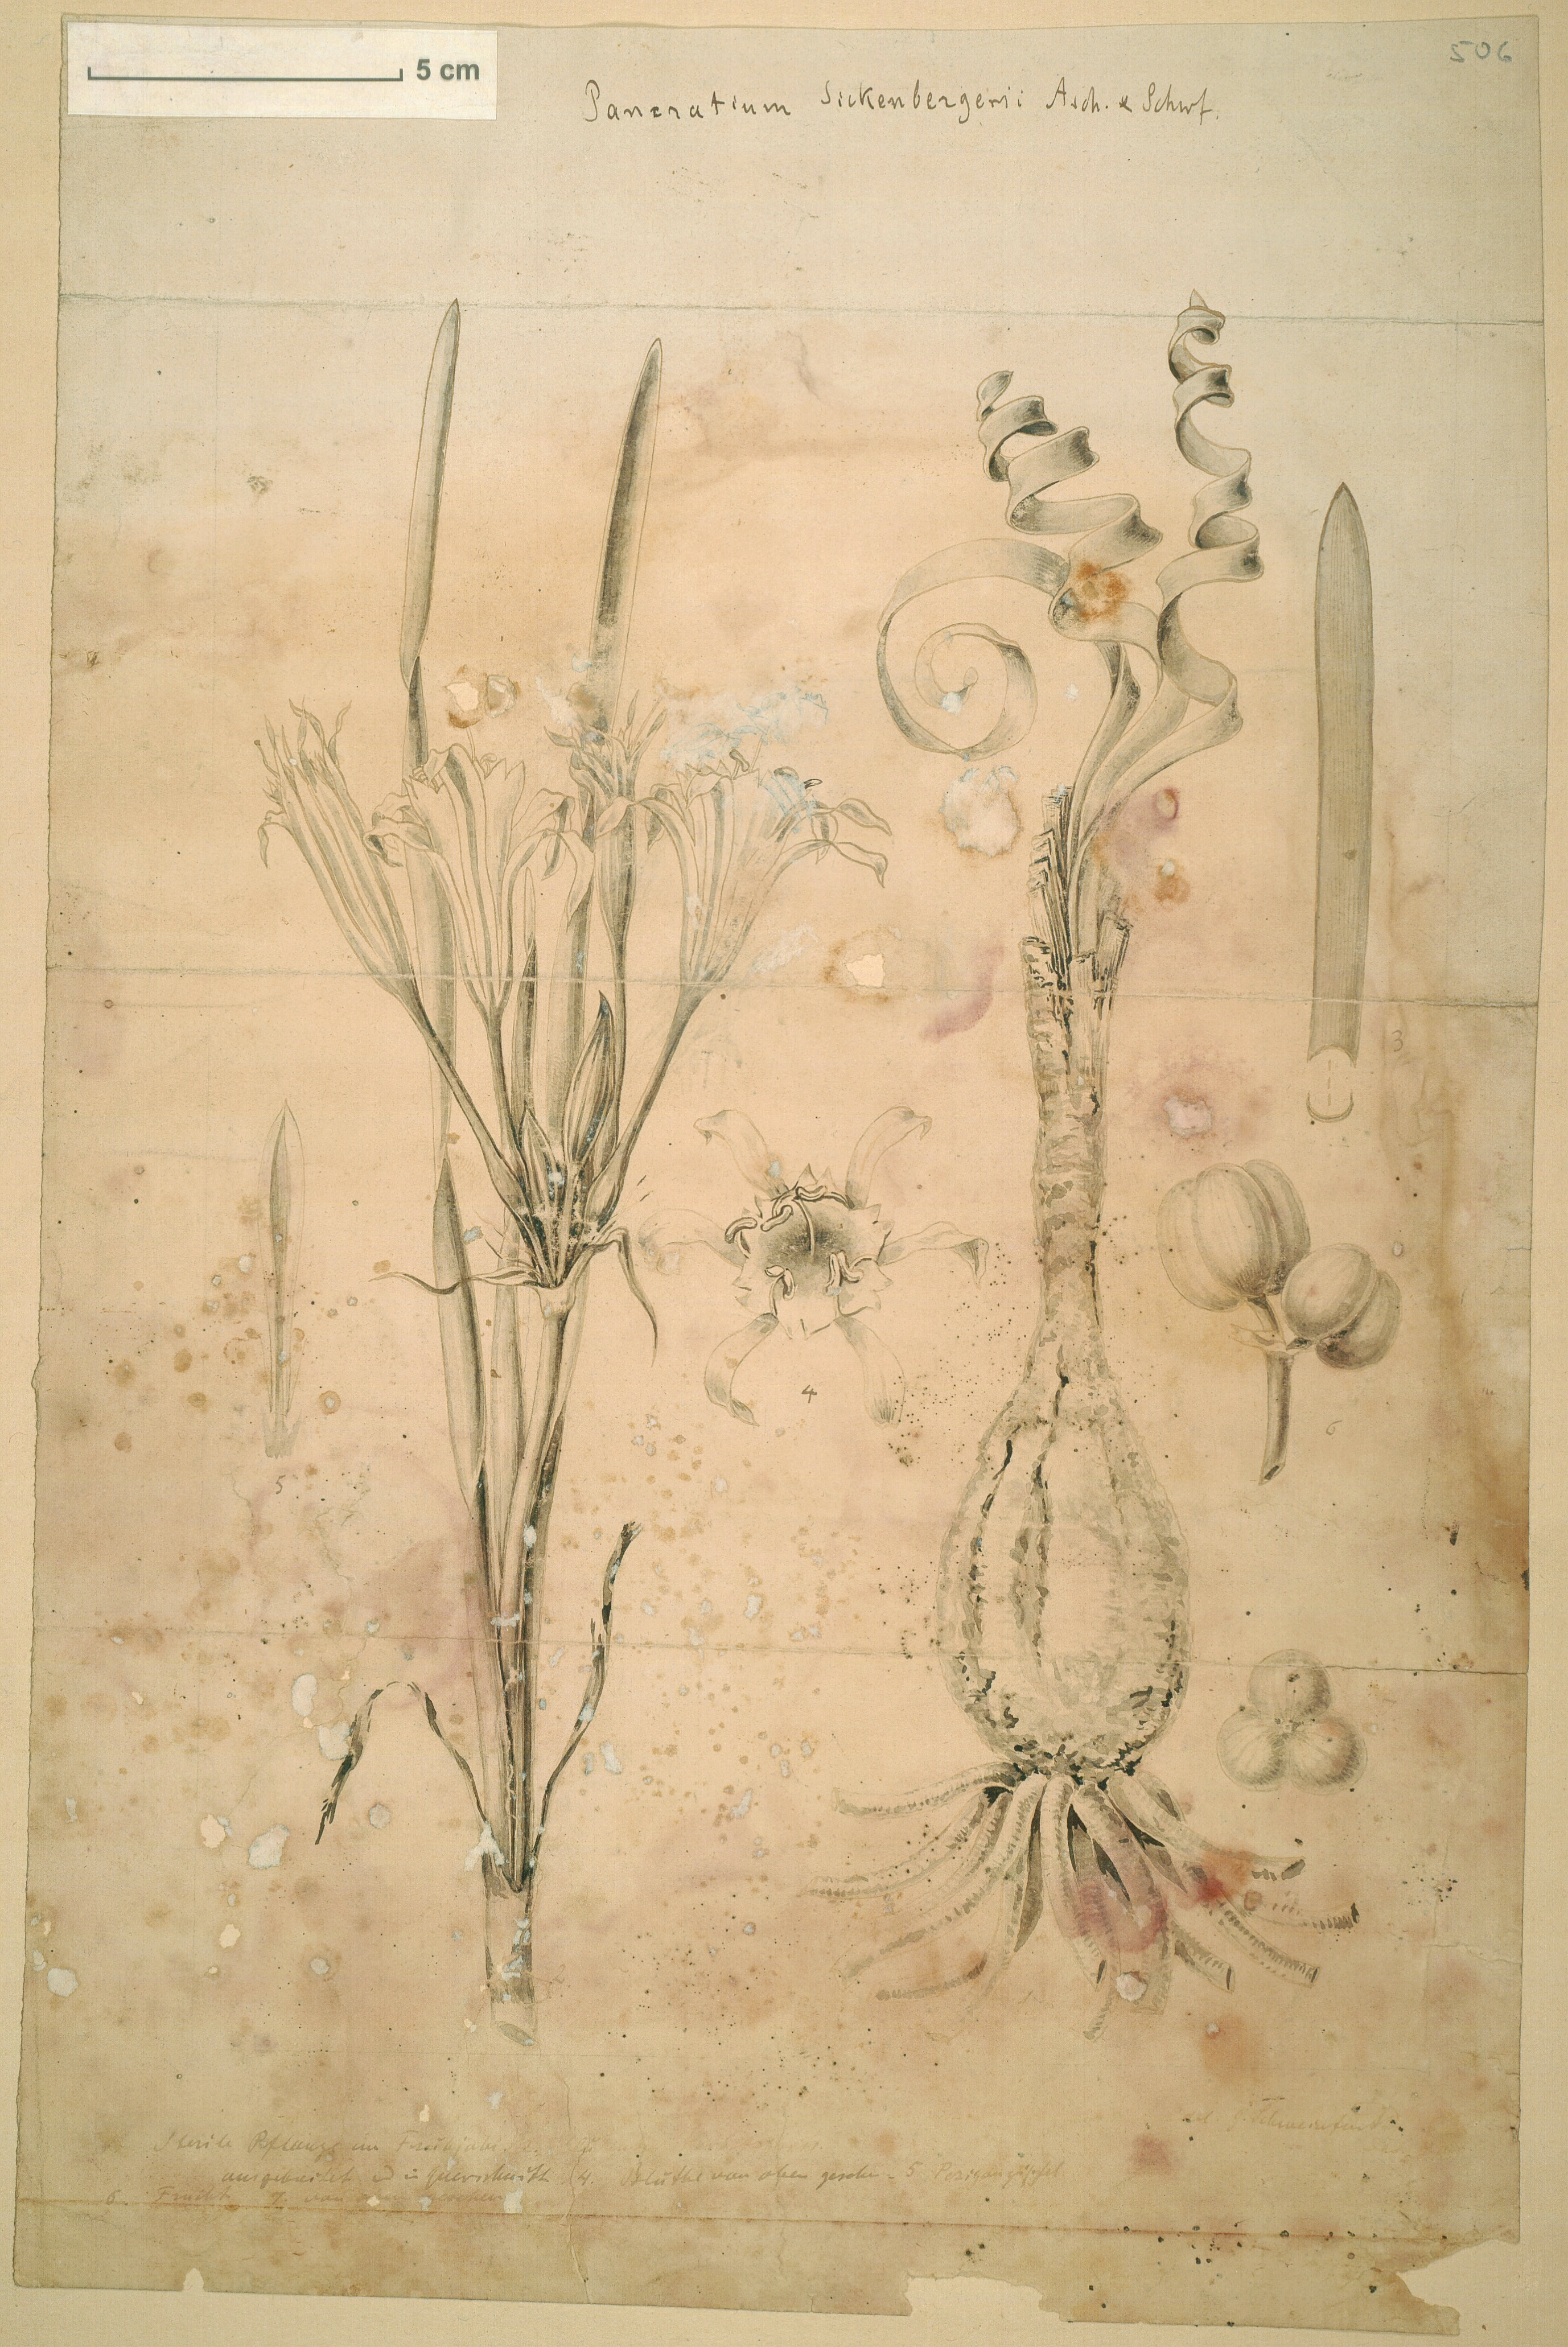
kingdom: Plantae
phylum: Tracheophyta
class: Liliopsida
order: Asparagales
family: Amaryllidaceae
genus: Pancratium
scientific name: Pancratium sickenbergeri
